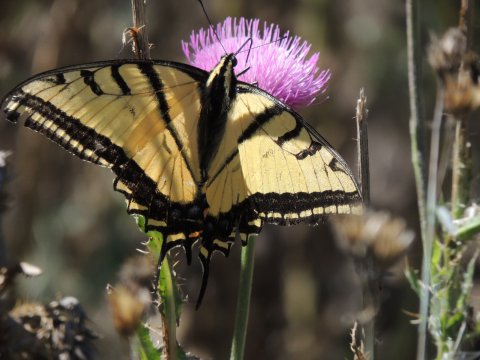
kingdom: Animalia
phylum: Arthropoda
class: Insecta
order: Lepidoptera
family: Papilionidae
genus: Papilio
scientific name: Papilio multicaudata
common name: Two-tailed Swallowtail
